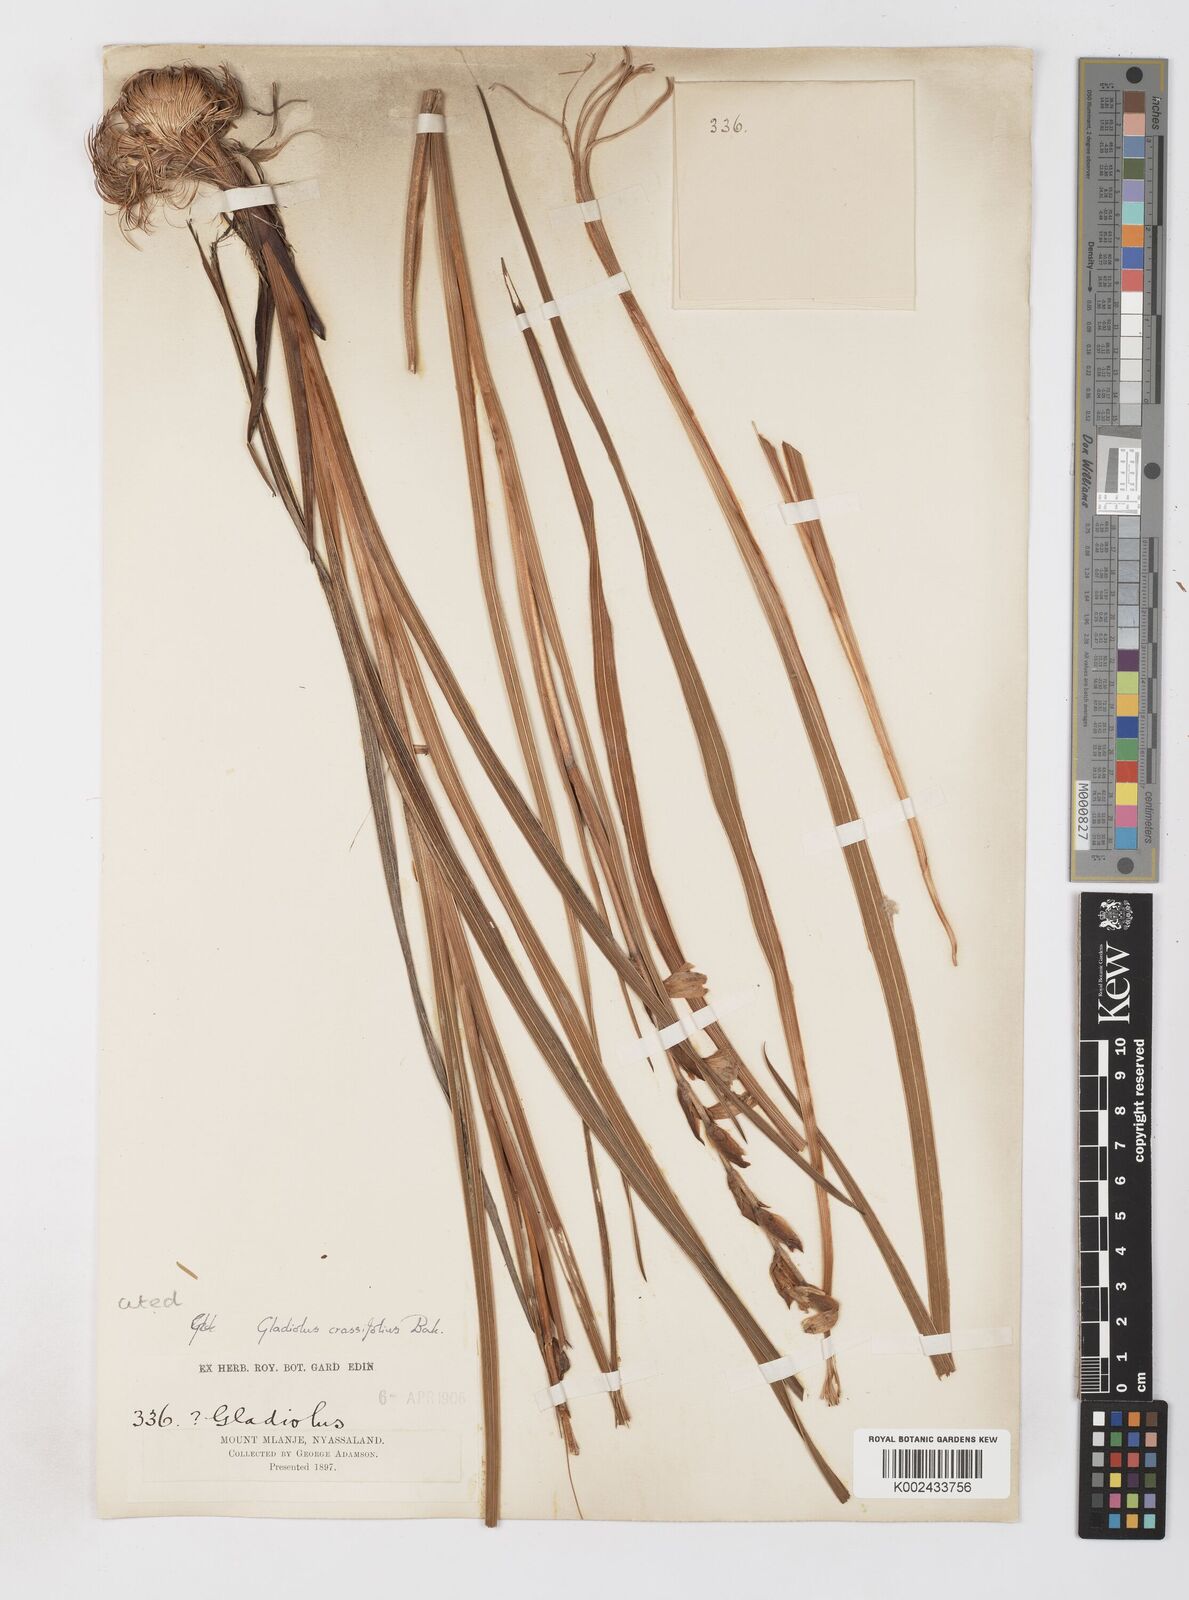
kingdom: Plantae
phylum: Tracheophyta
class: Liliopsida
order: Asparagales
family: Iridaceae
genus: Gladiolus
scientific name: Gladiolus crassifolius
